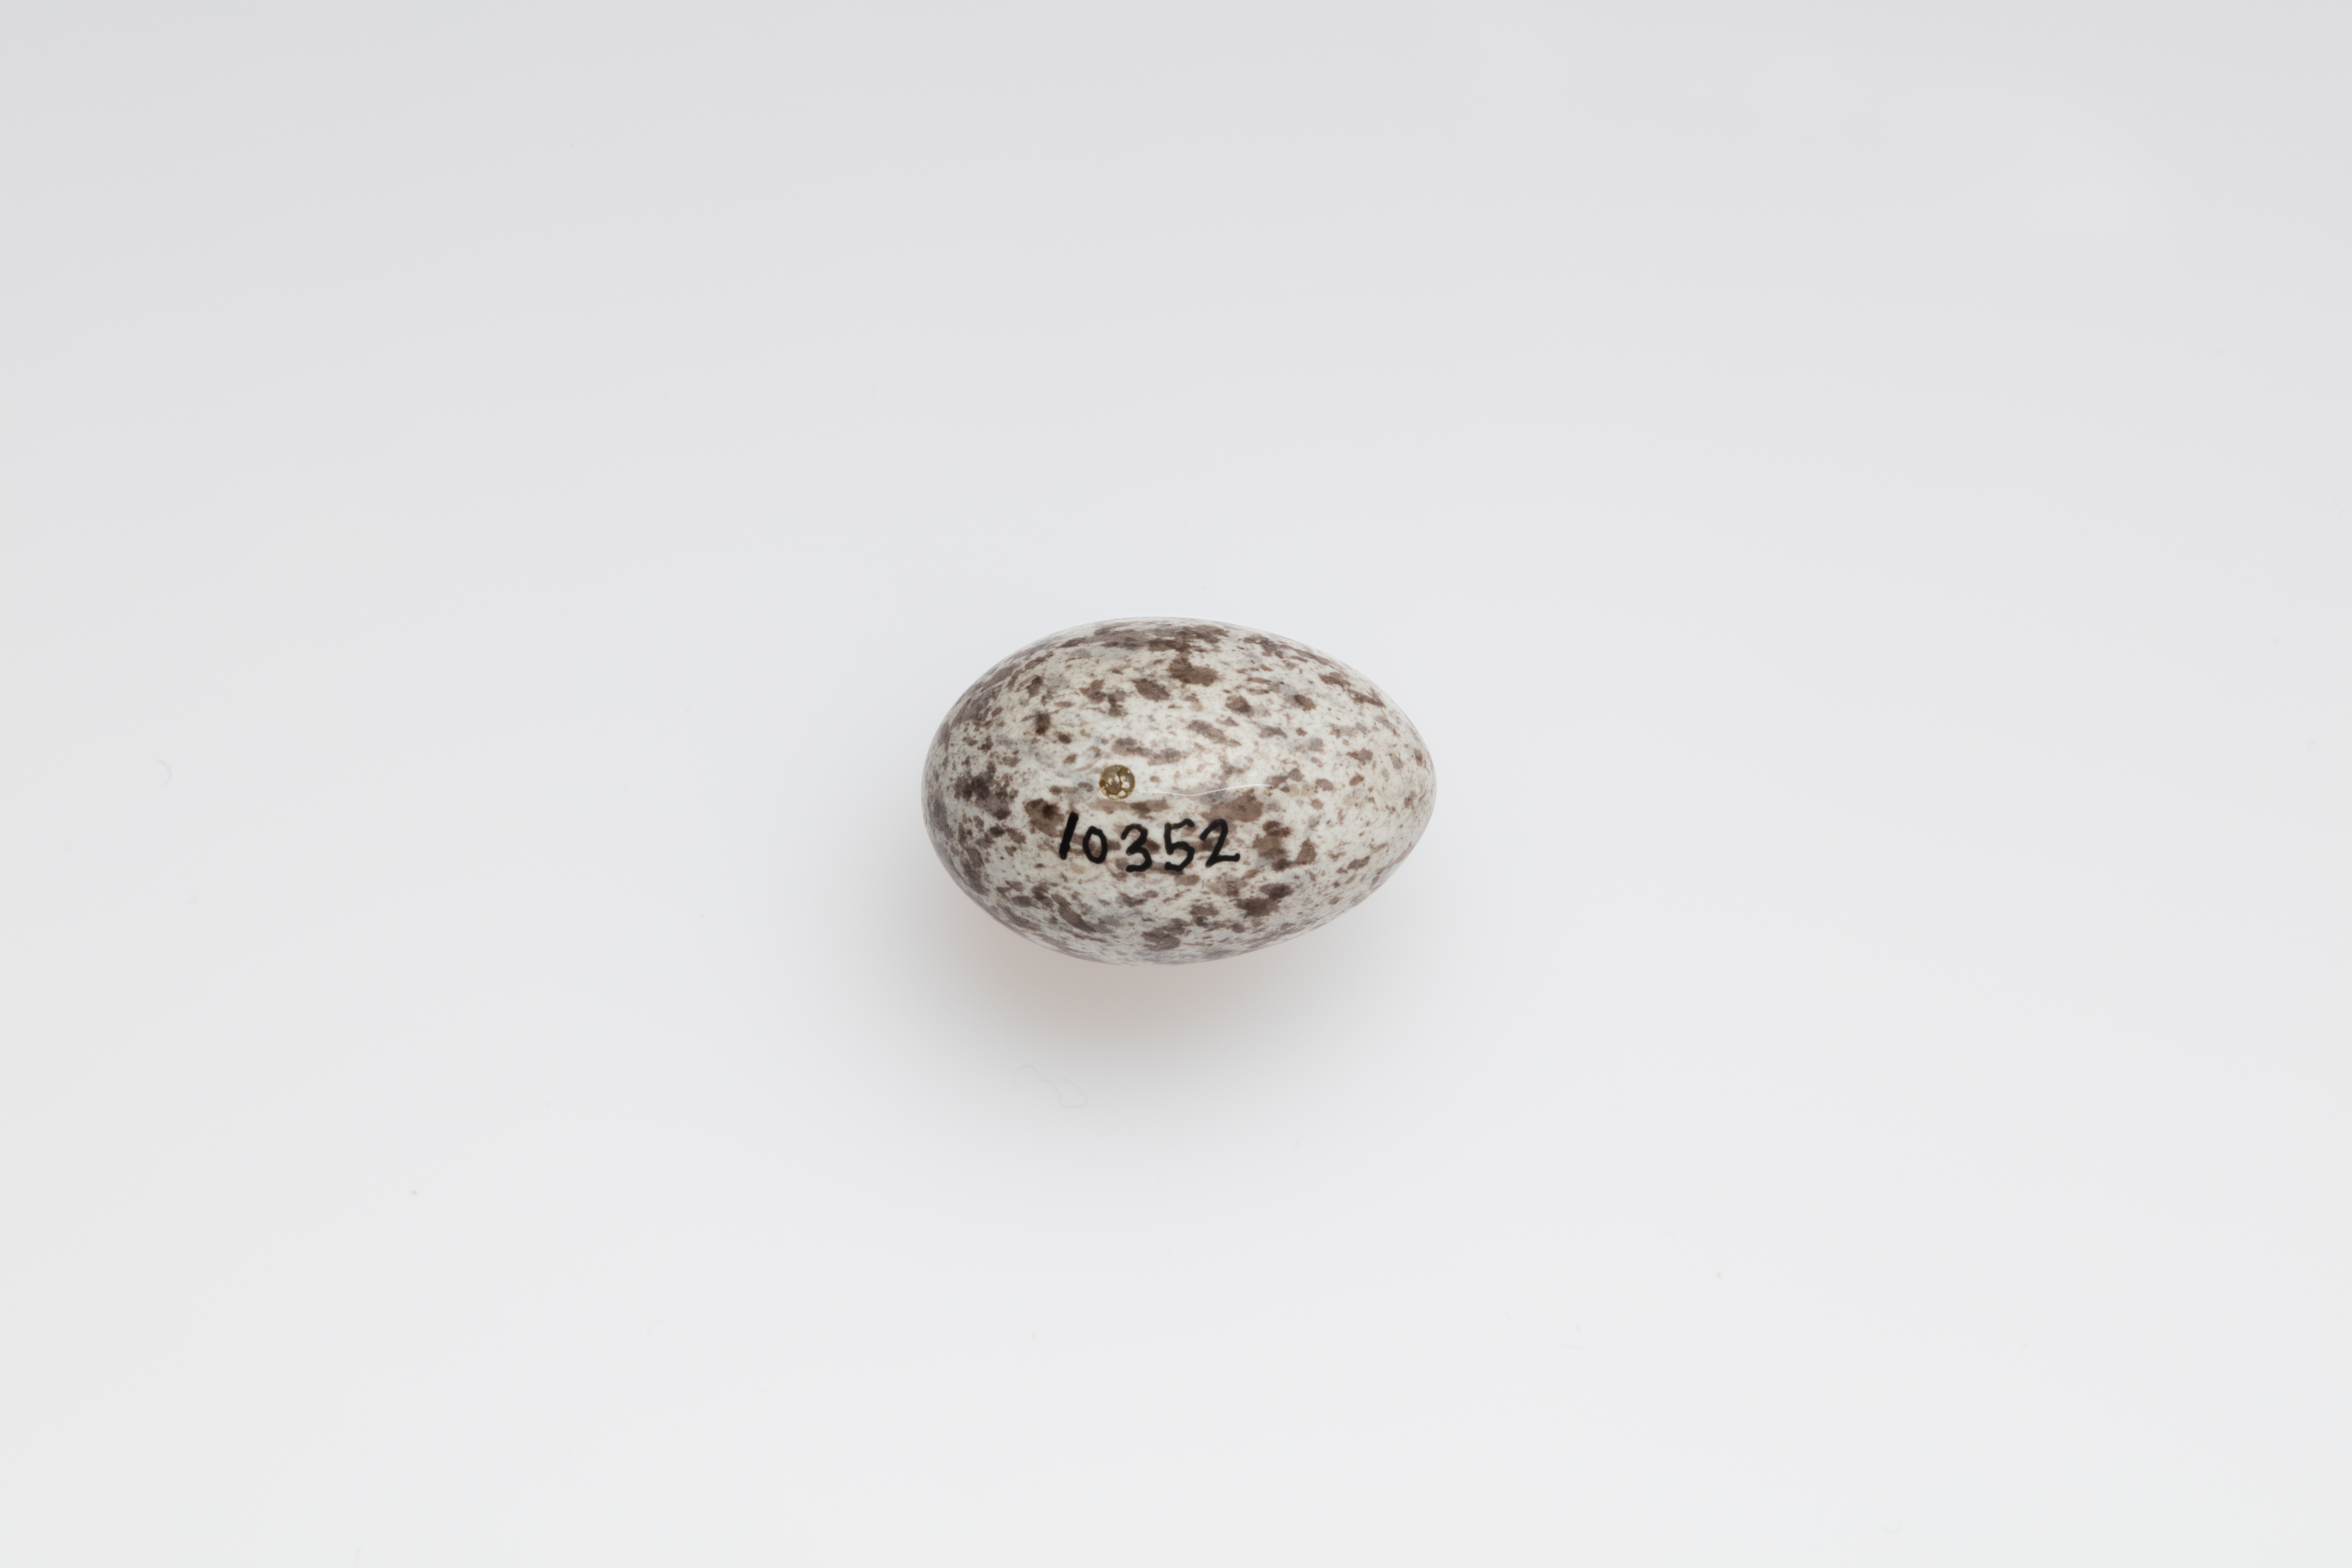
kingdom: Animalia
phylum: Chordata
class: Aves
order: Passeriformes
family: Passeridae
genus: Passer
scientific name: Passer domesticus
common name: House sparrow
